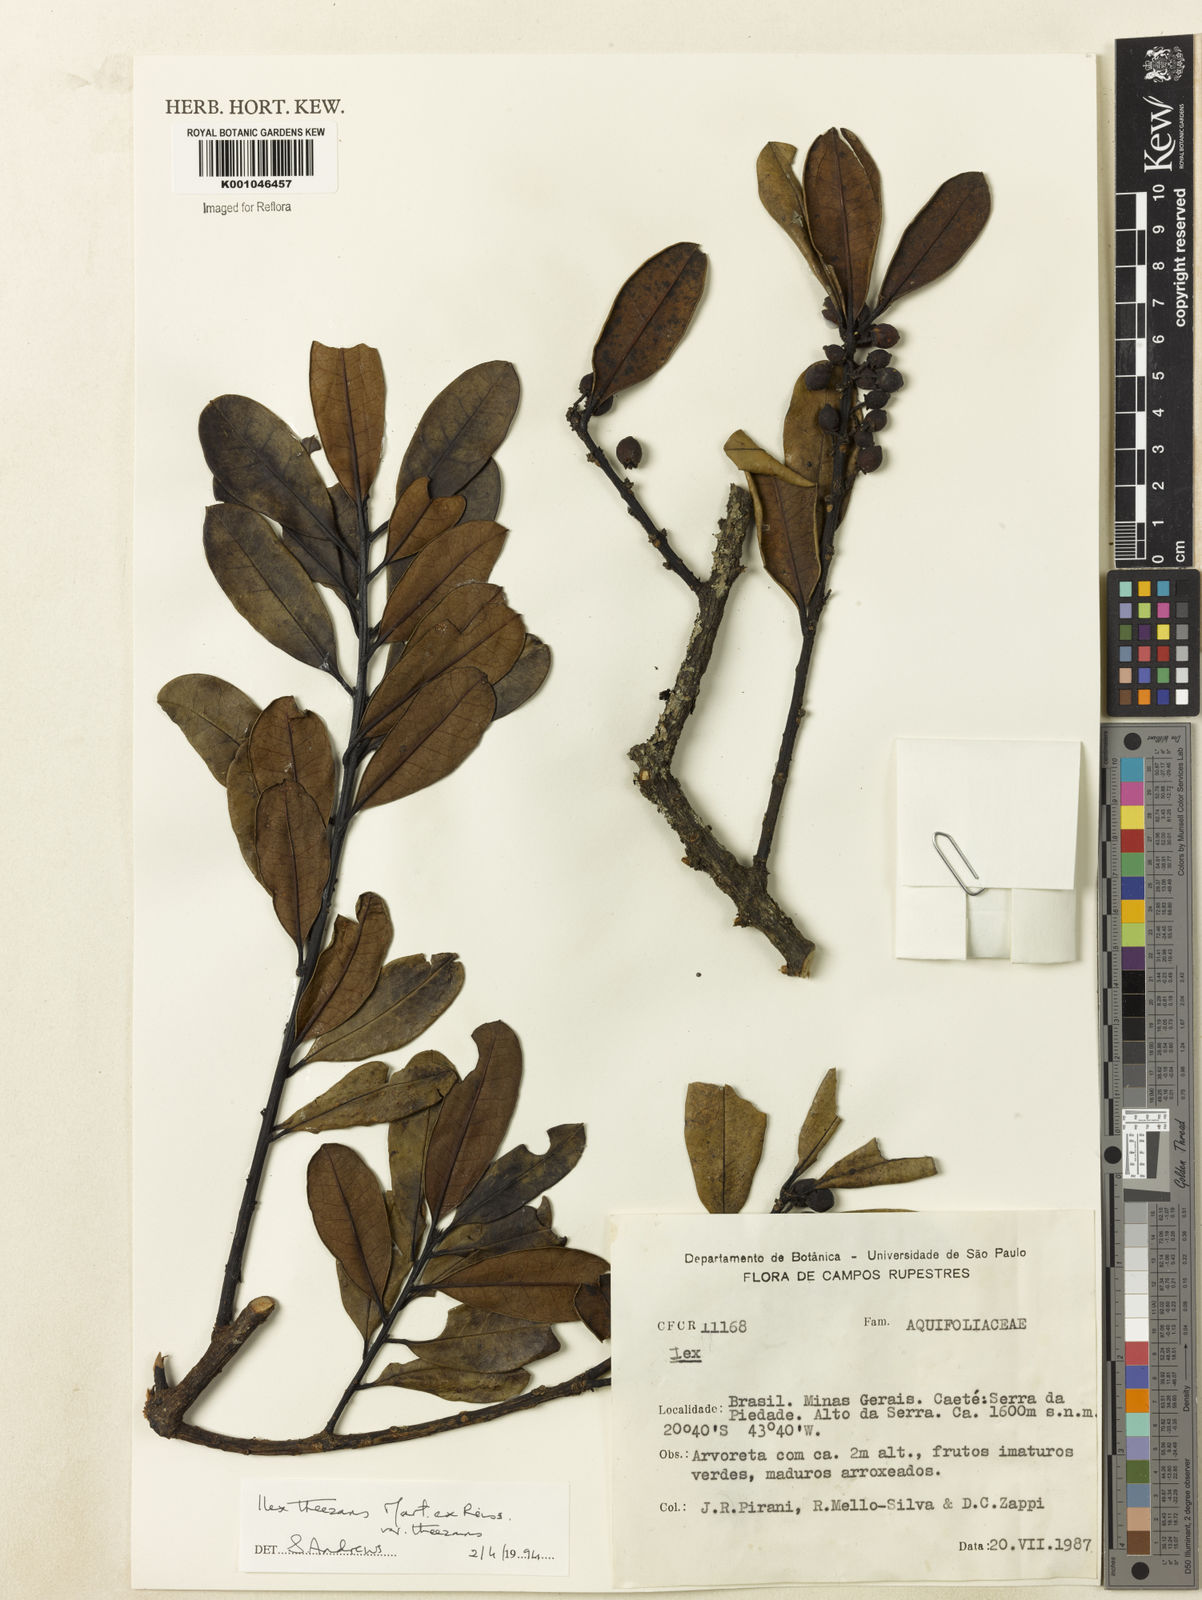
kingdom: Plantae
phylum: Tracheophyta
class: Magnoliopsida
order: Aquifoliales
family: Aquifoliaceae
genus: Ilex
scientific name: Ilex paraguariensis
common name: Paraguay tea
